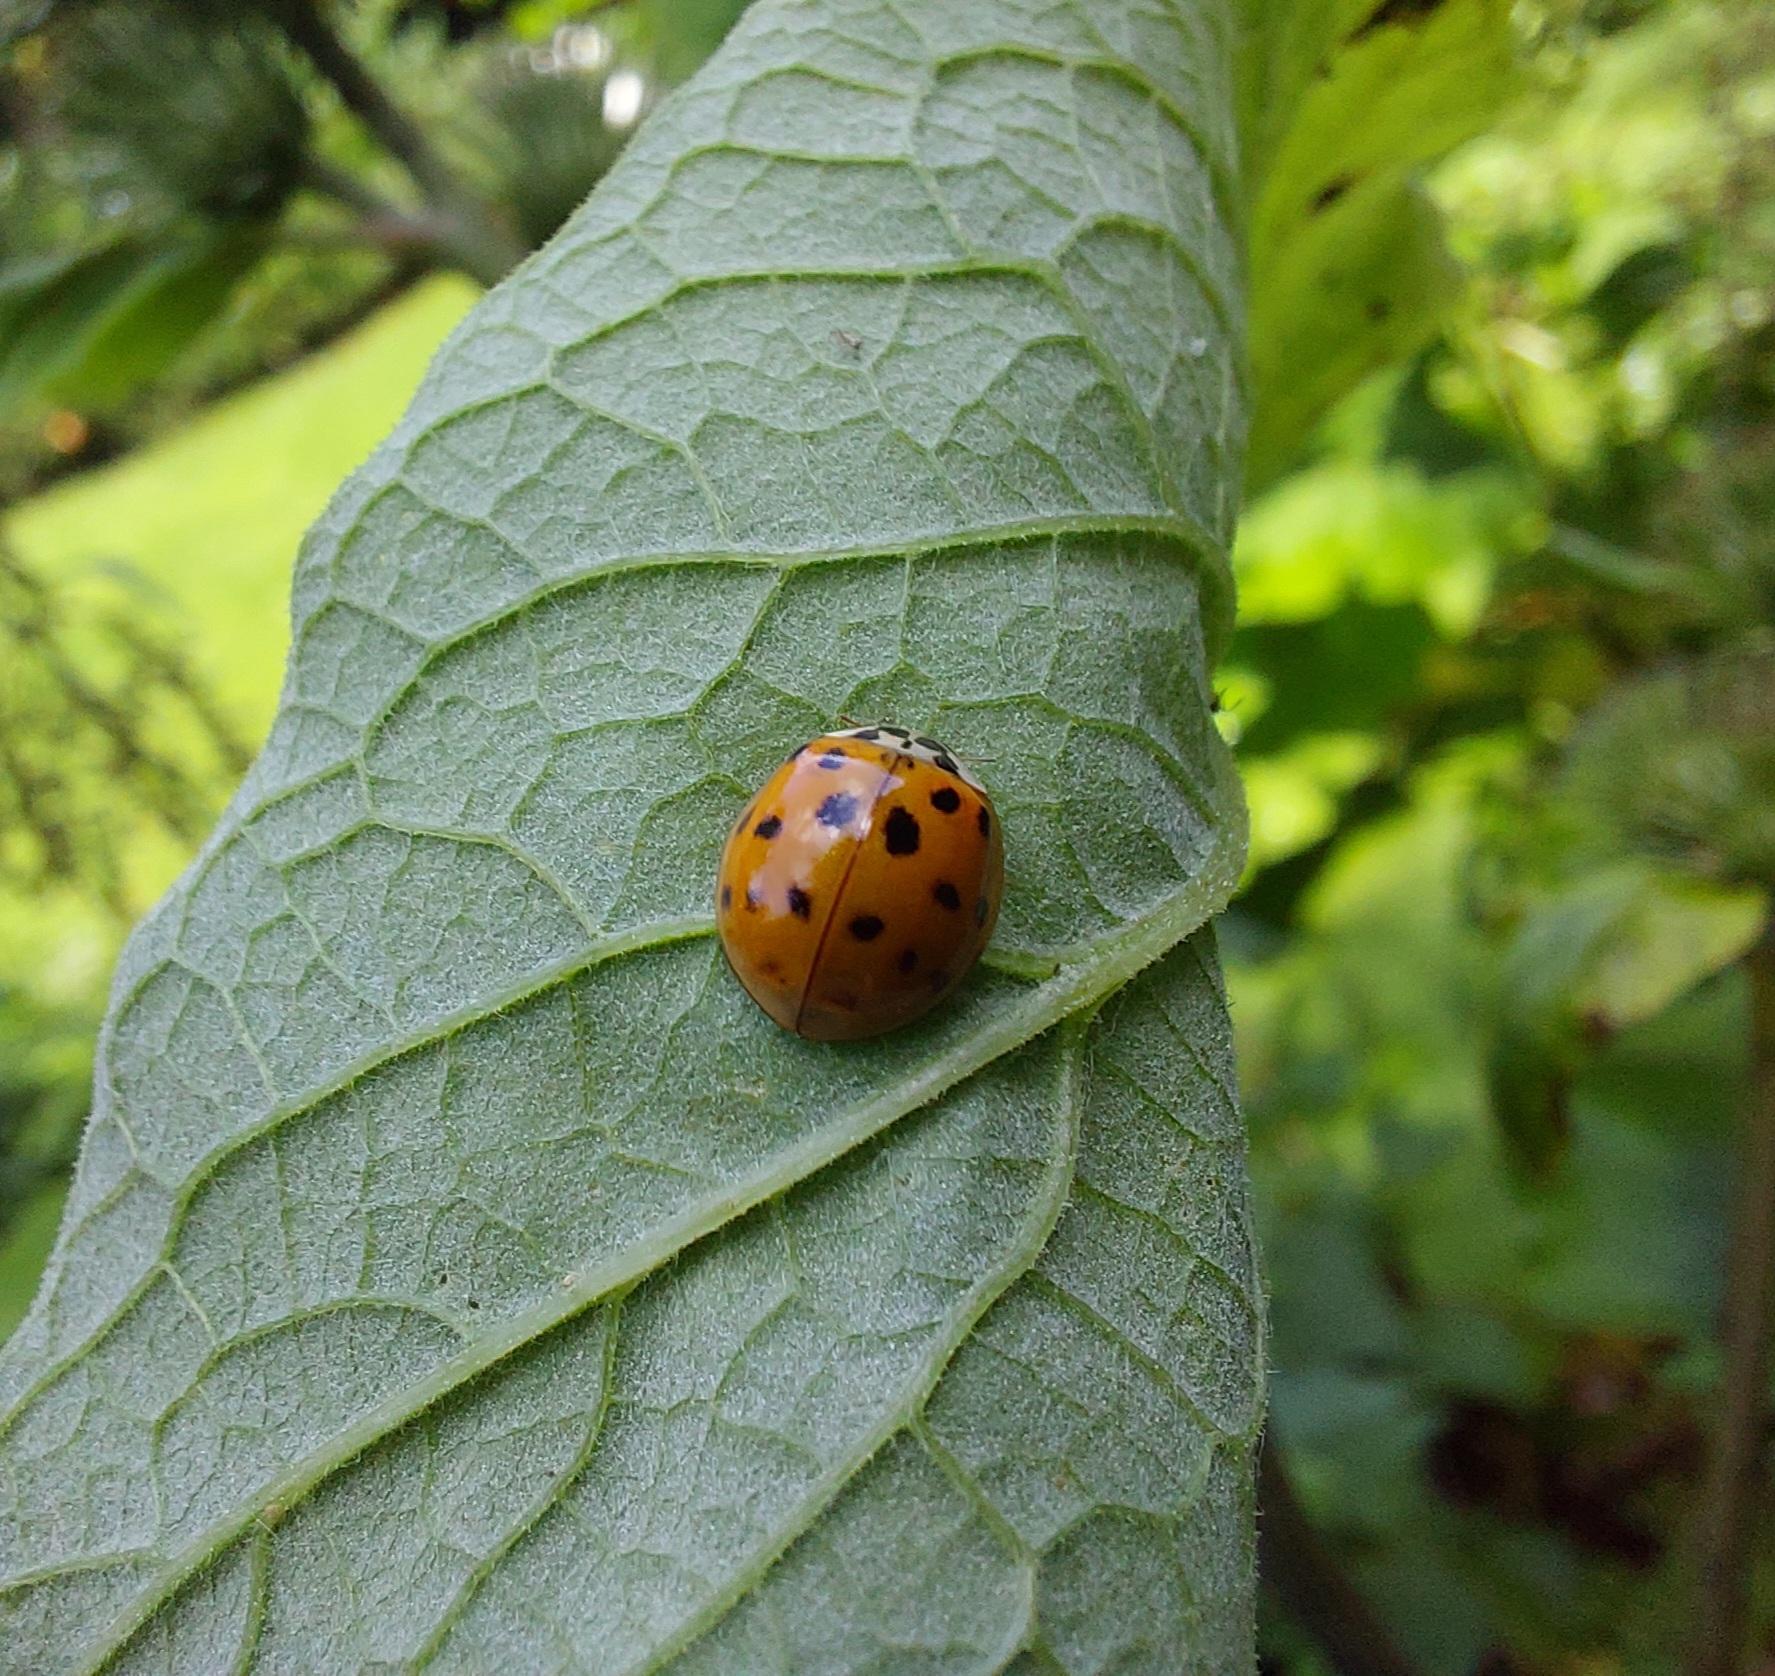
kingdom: Animalia
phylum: Arthropoda
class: Insecta
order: Coleoptera
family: Coccinellidae
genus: Harmonia
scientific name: Harmonia axyridis
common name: Harlekinmariehøne
